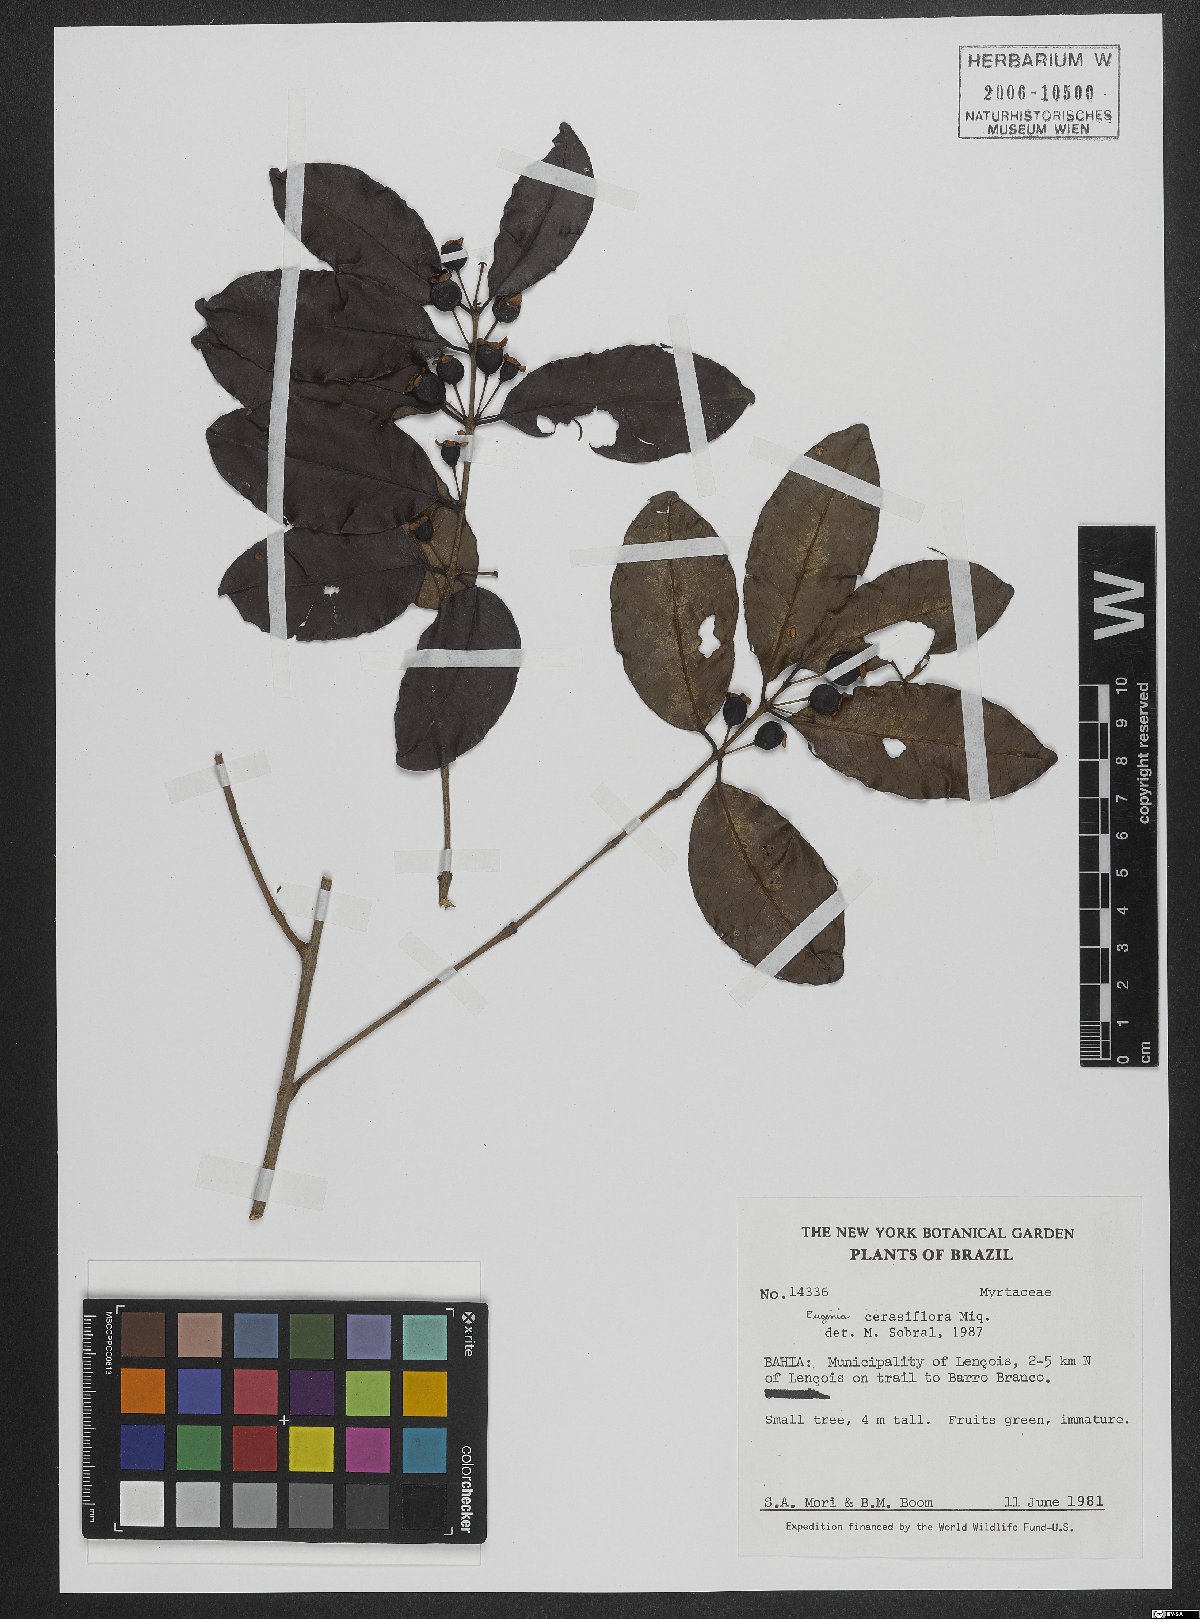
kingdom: Plantae
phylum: Tracheophyta
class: Magnoliopsida
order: Myrtales
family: Myrtaceae
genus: Eugenia
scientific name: Eugenia cerasiflora
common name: Cherry-of-the-rio-grande
